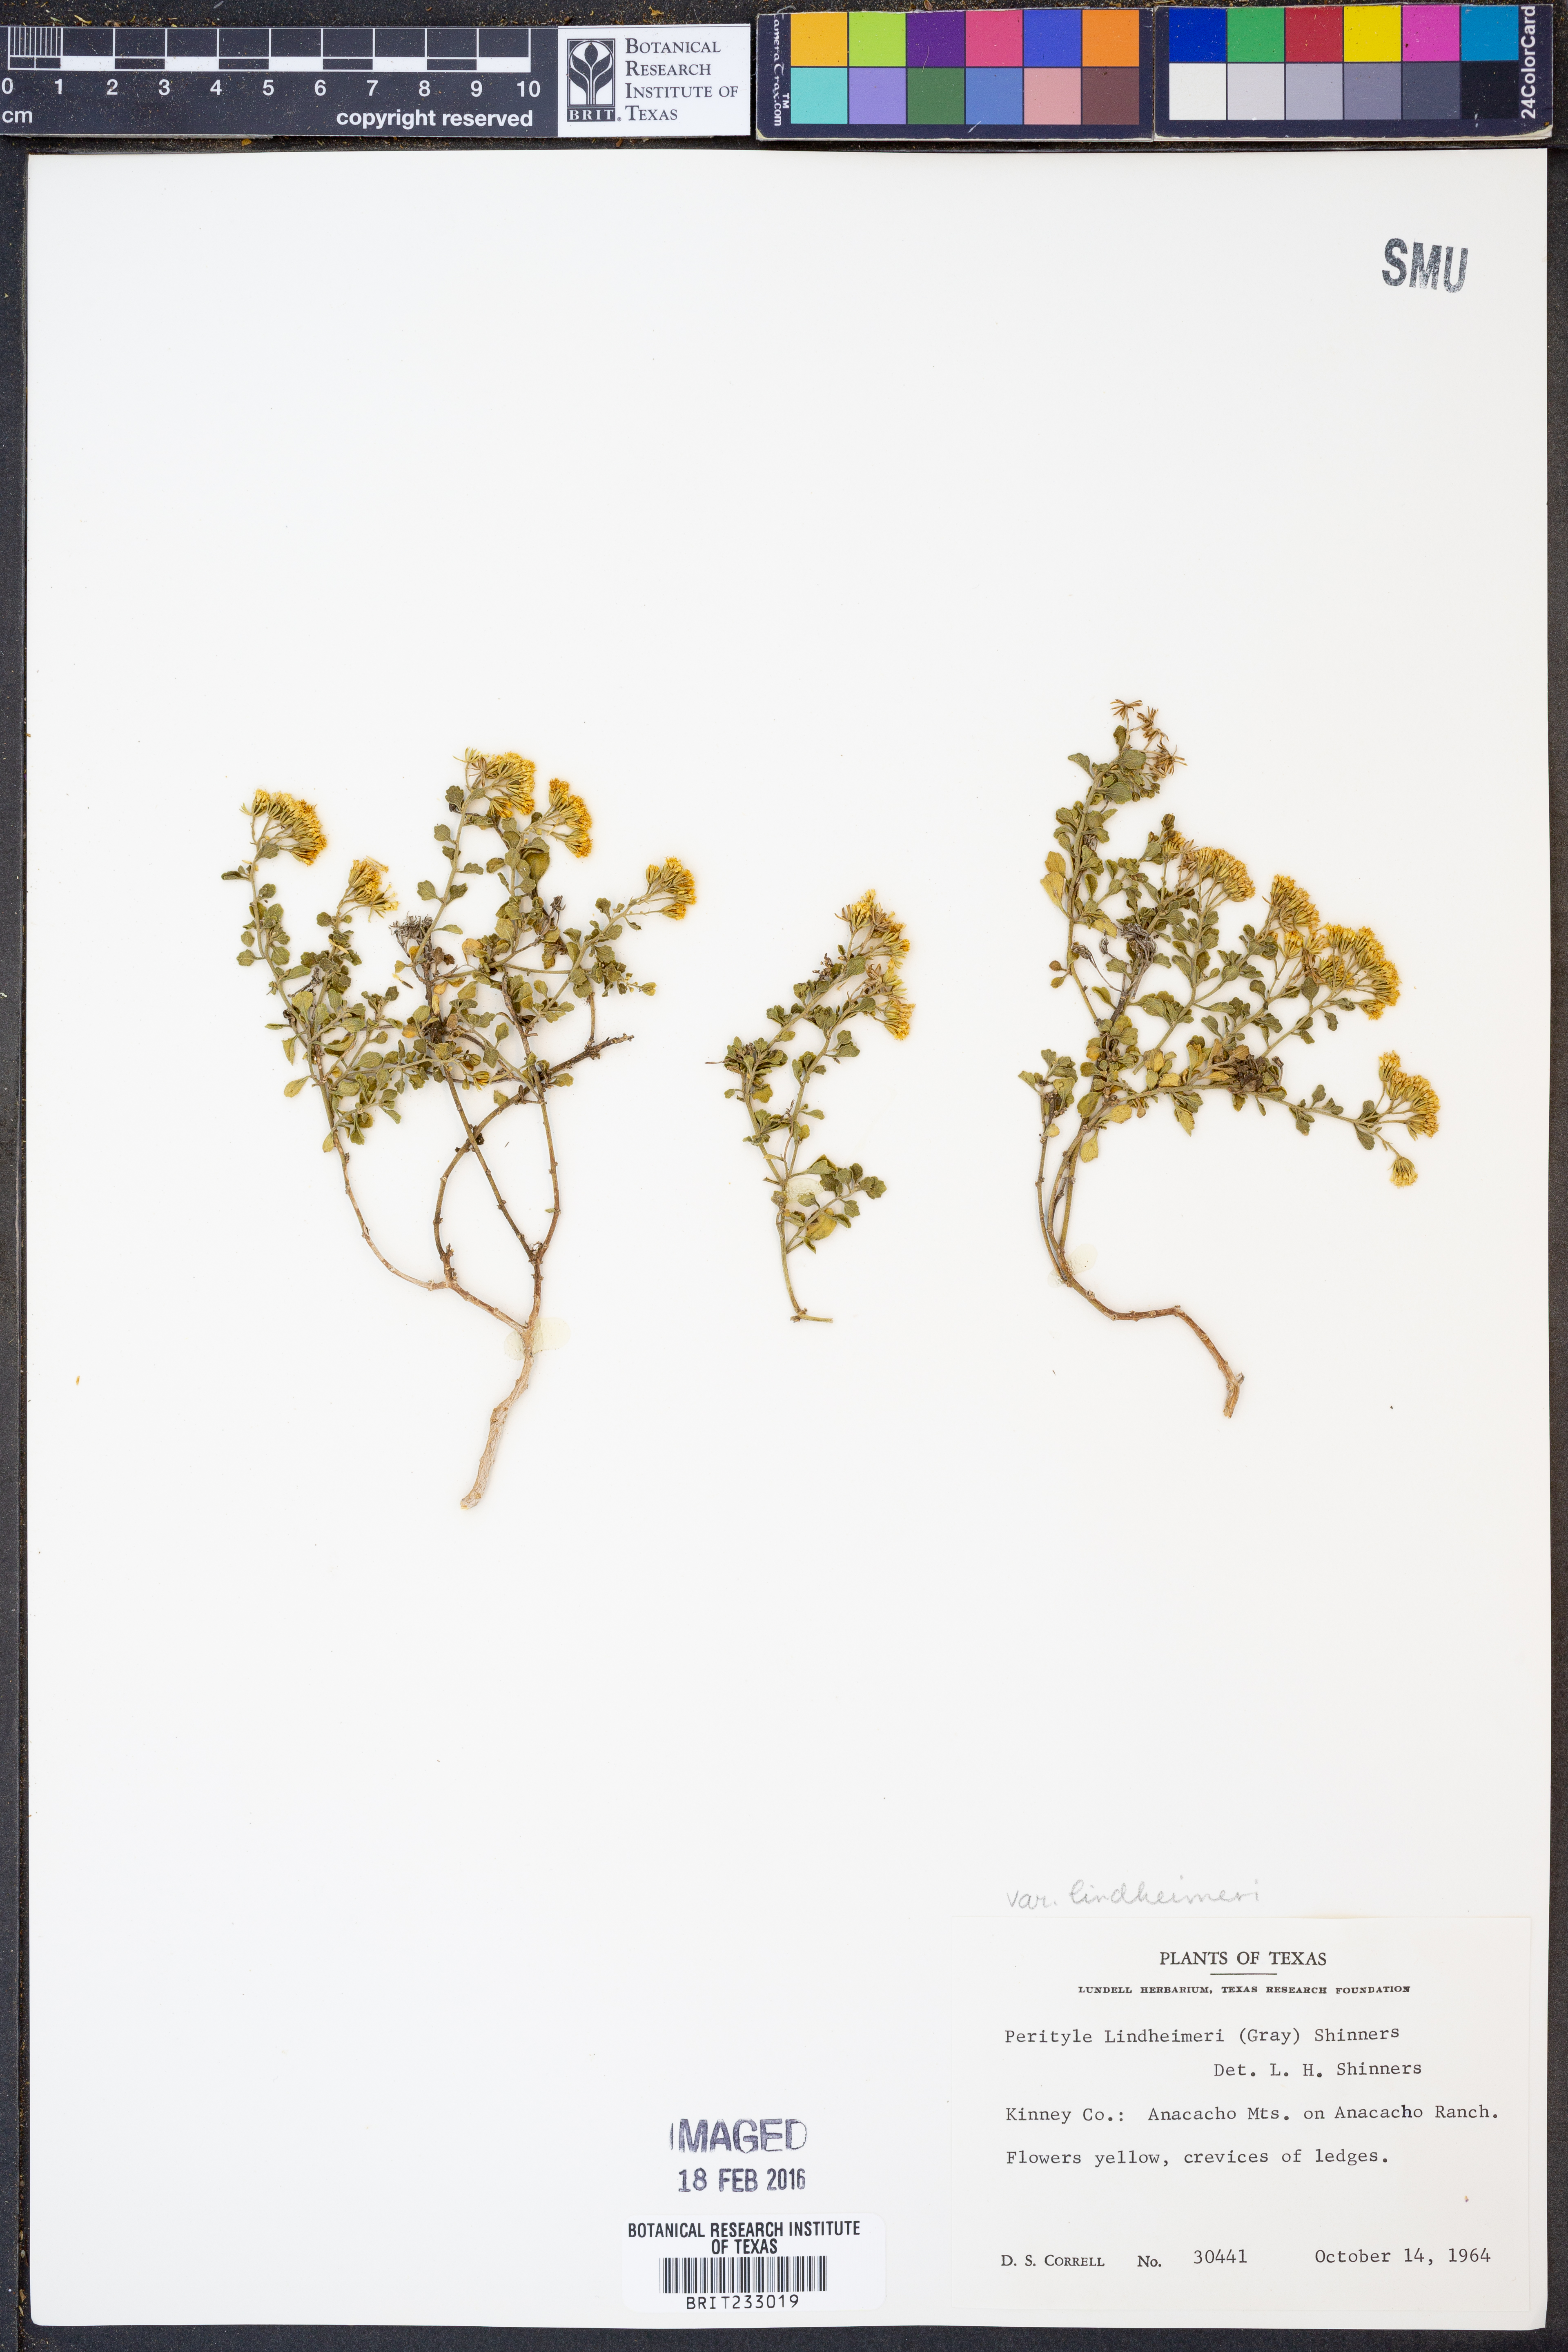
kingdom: Plantae
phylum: Tracheophyta
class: Magnoliopsida
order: Asterales
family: Asteraceae
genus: Laphamia
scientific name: Laphamia lindheimeri
